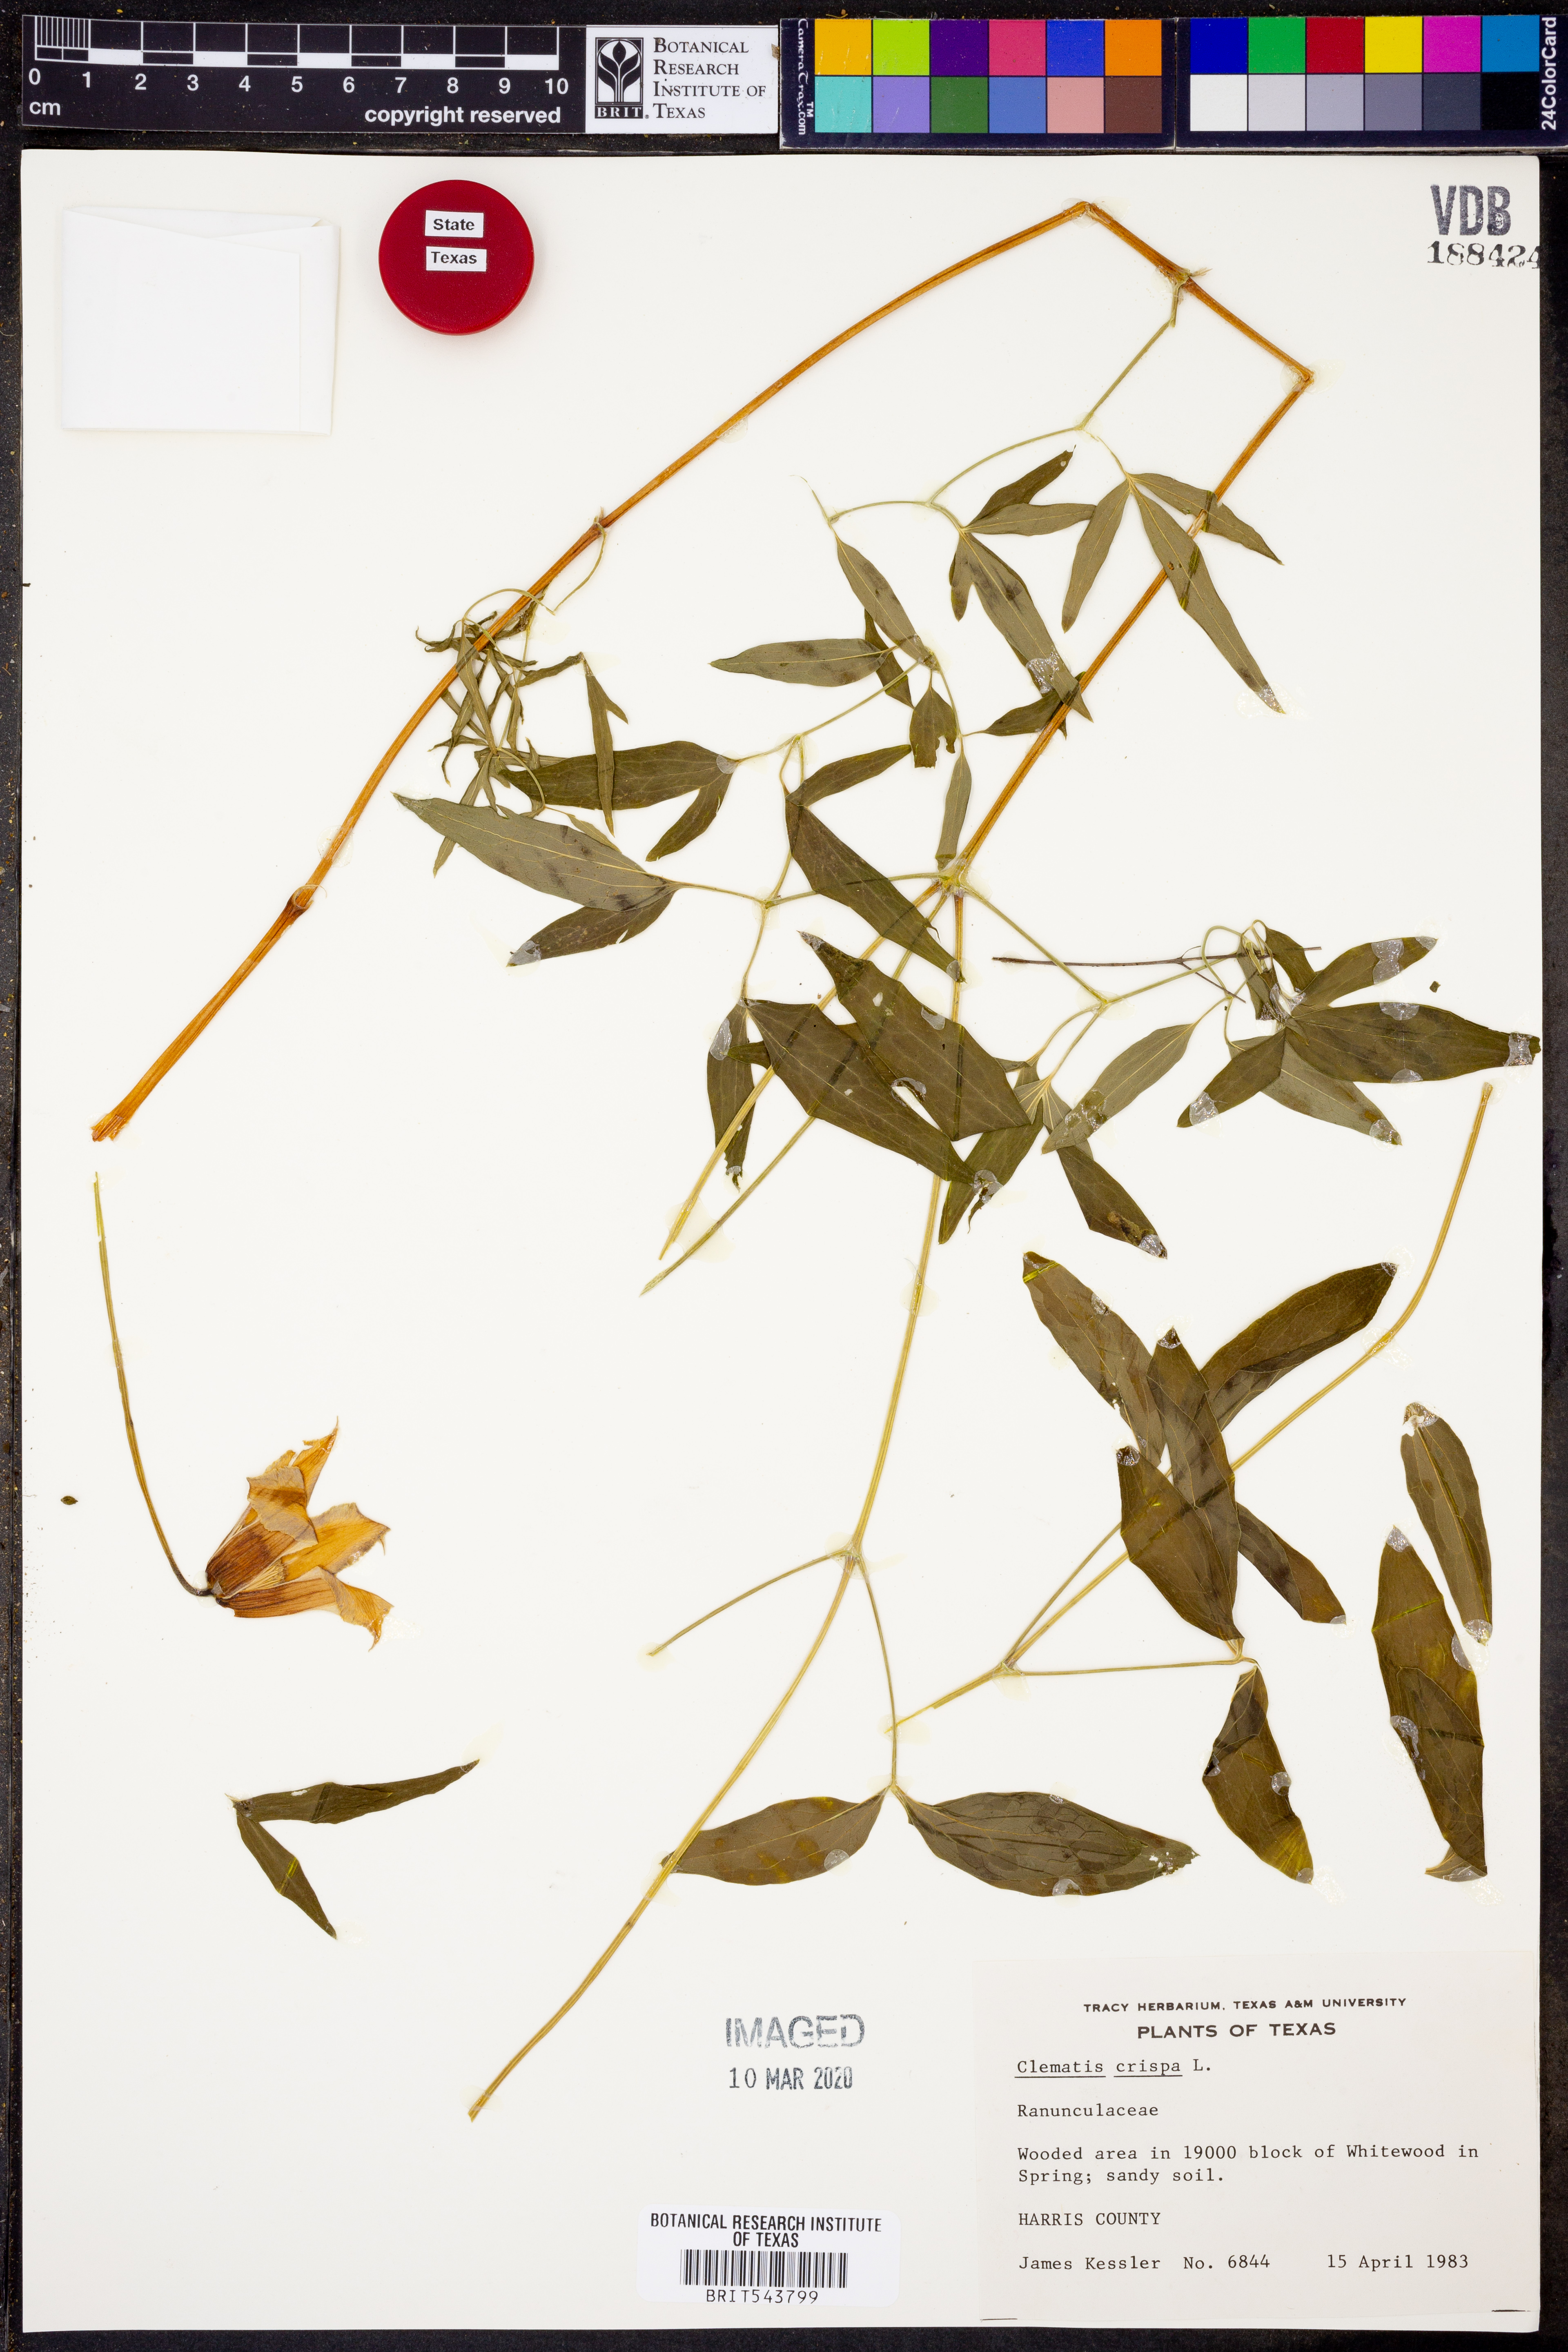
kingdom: Plantae
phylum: Tracheophyta
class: Magnoliopsida
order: Ranunculales
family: Ranunculaceae
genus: Clematis
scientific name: Clematis crispa
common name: Curly clematis
